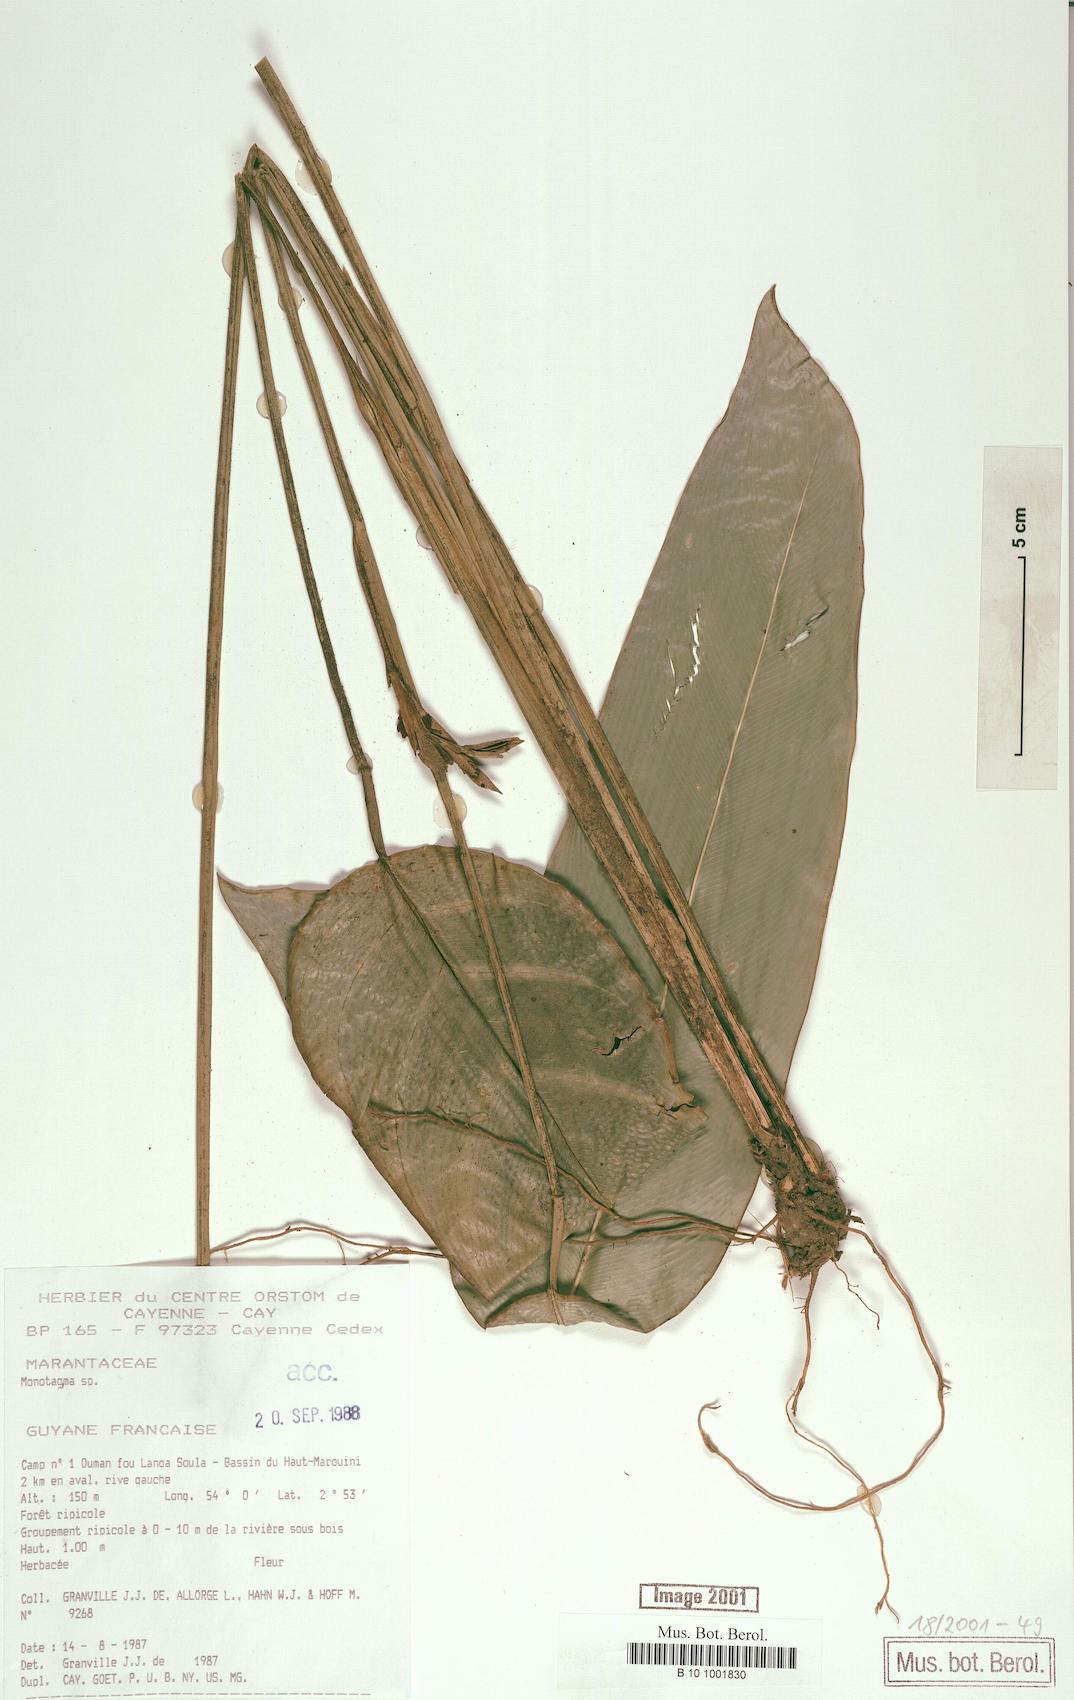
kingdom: Plantae
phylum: Tracheophyta
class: Liliopsida
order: Zingiberales
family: Marantaceae
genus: Monotagma
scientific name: Monotagma
